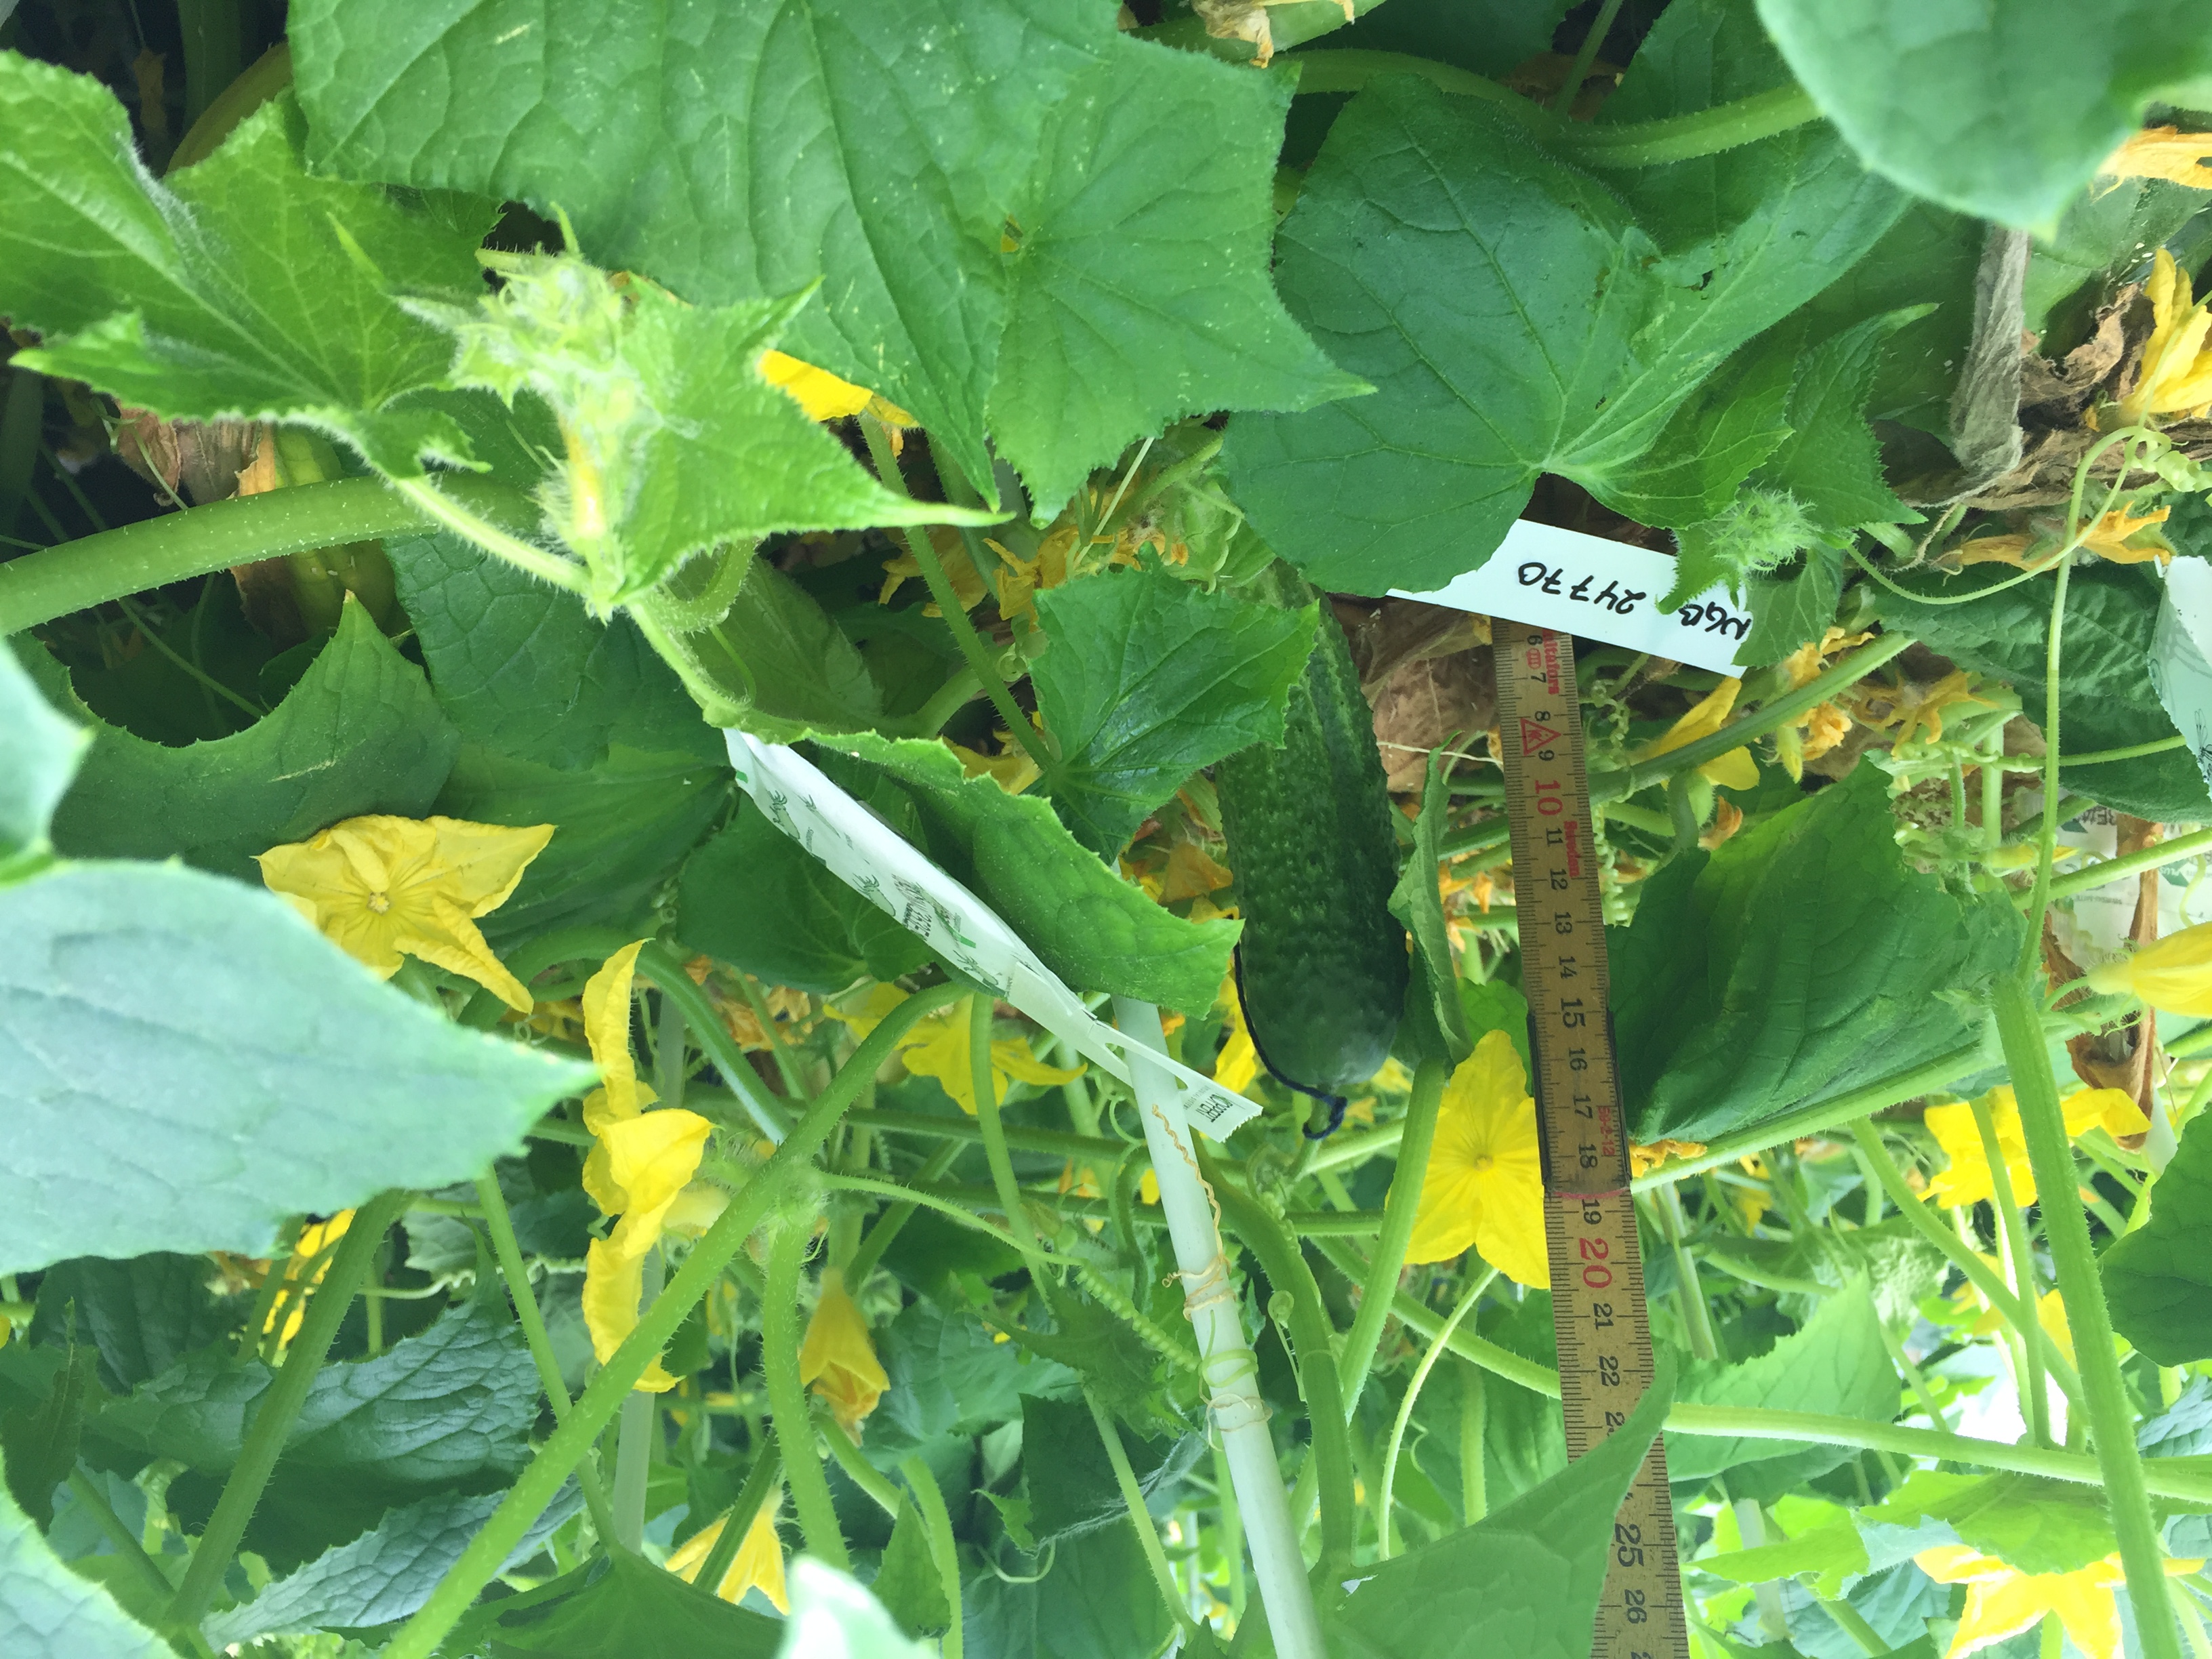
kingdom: Plantae
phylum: Tracheophyta
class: Magnoliopsida
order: Cucurbitales
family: Cucurbitaceae
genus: Cucumis
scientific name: Cucumis sativus
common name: Cucumber
